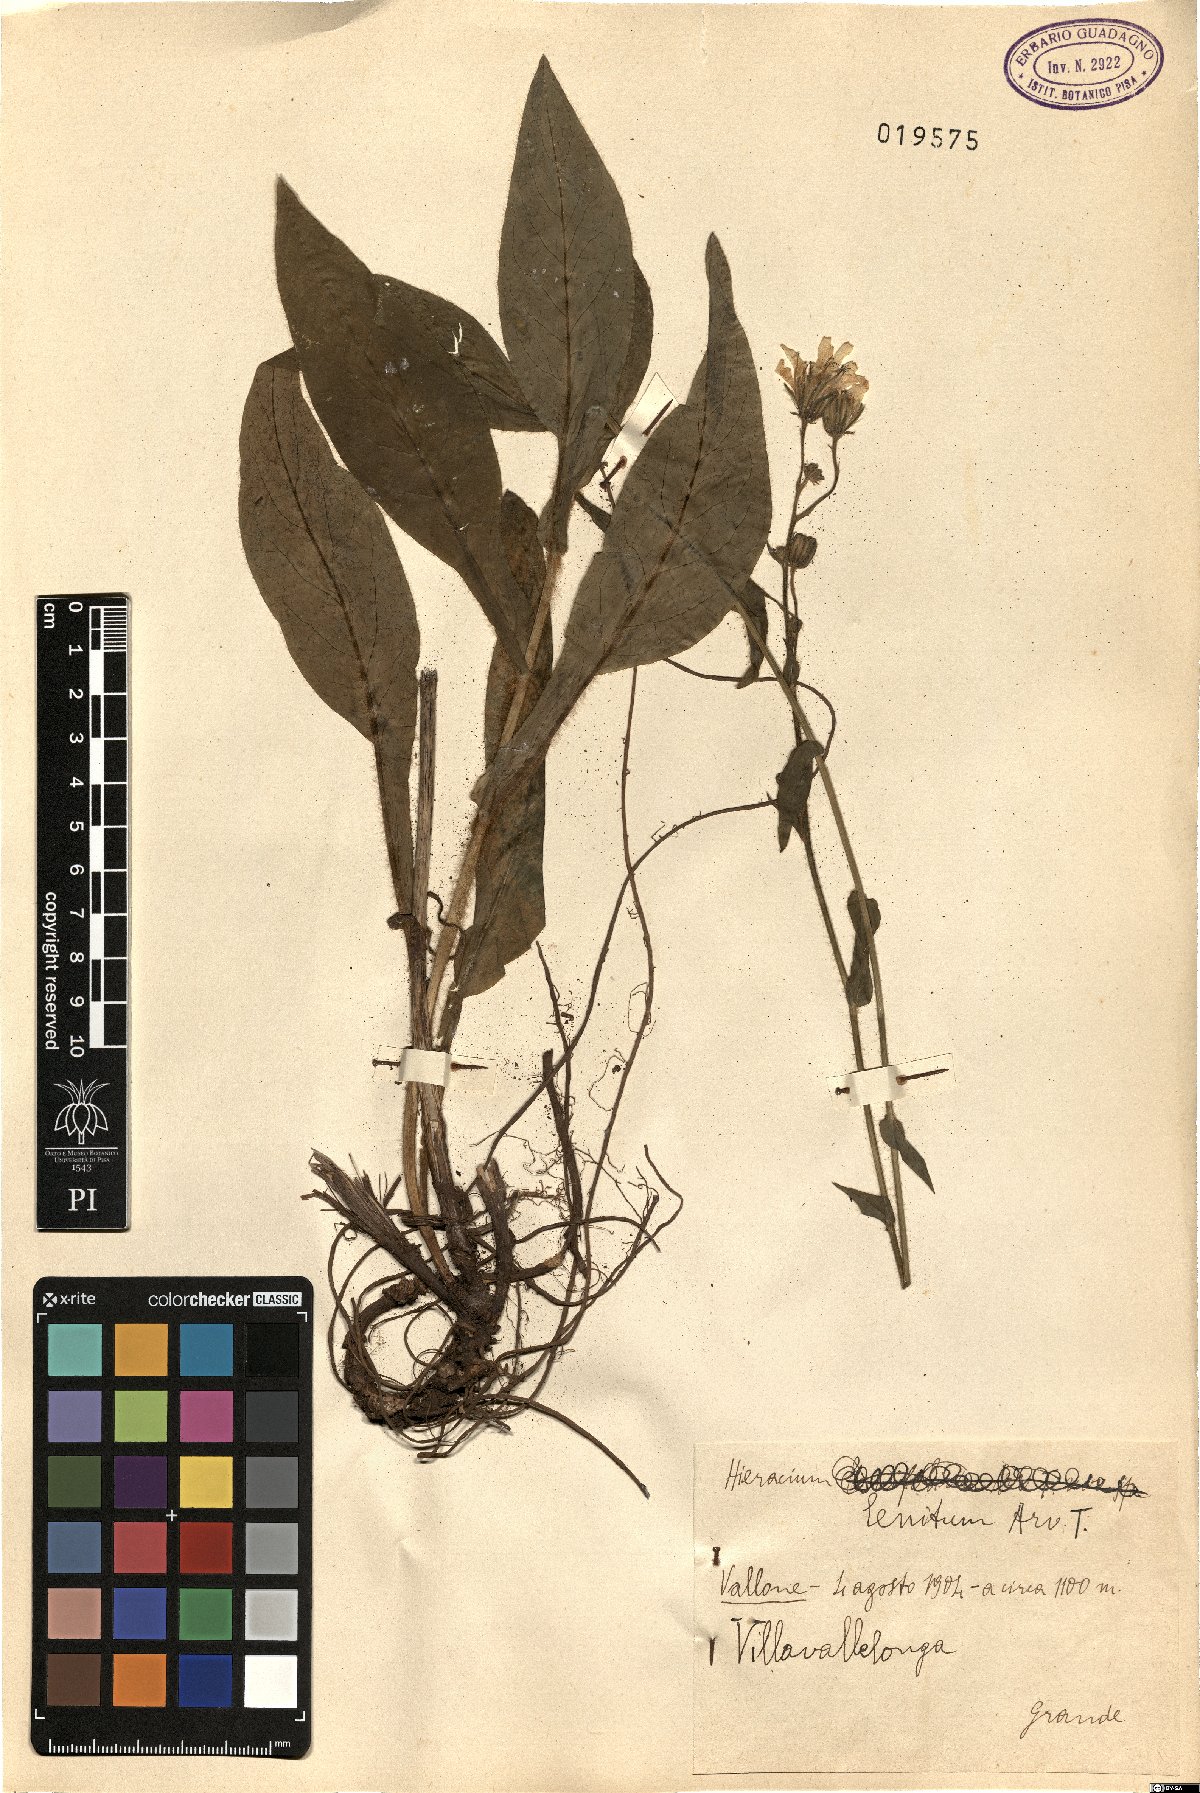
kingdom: Plantae
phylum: Tracheophyta
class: Magnoliopsida
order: Asterales
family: Asteraceae
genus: Hieracium
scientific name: Hieracium symphytaceum
